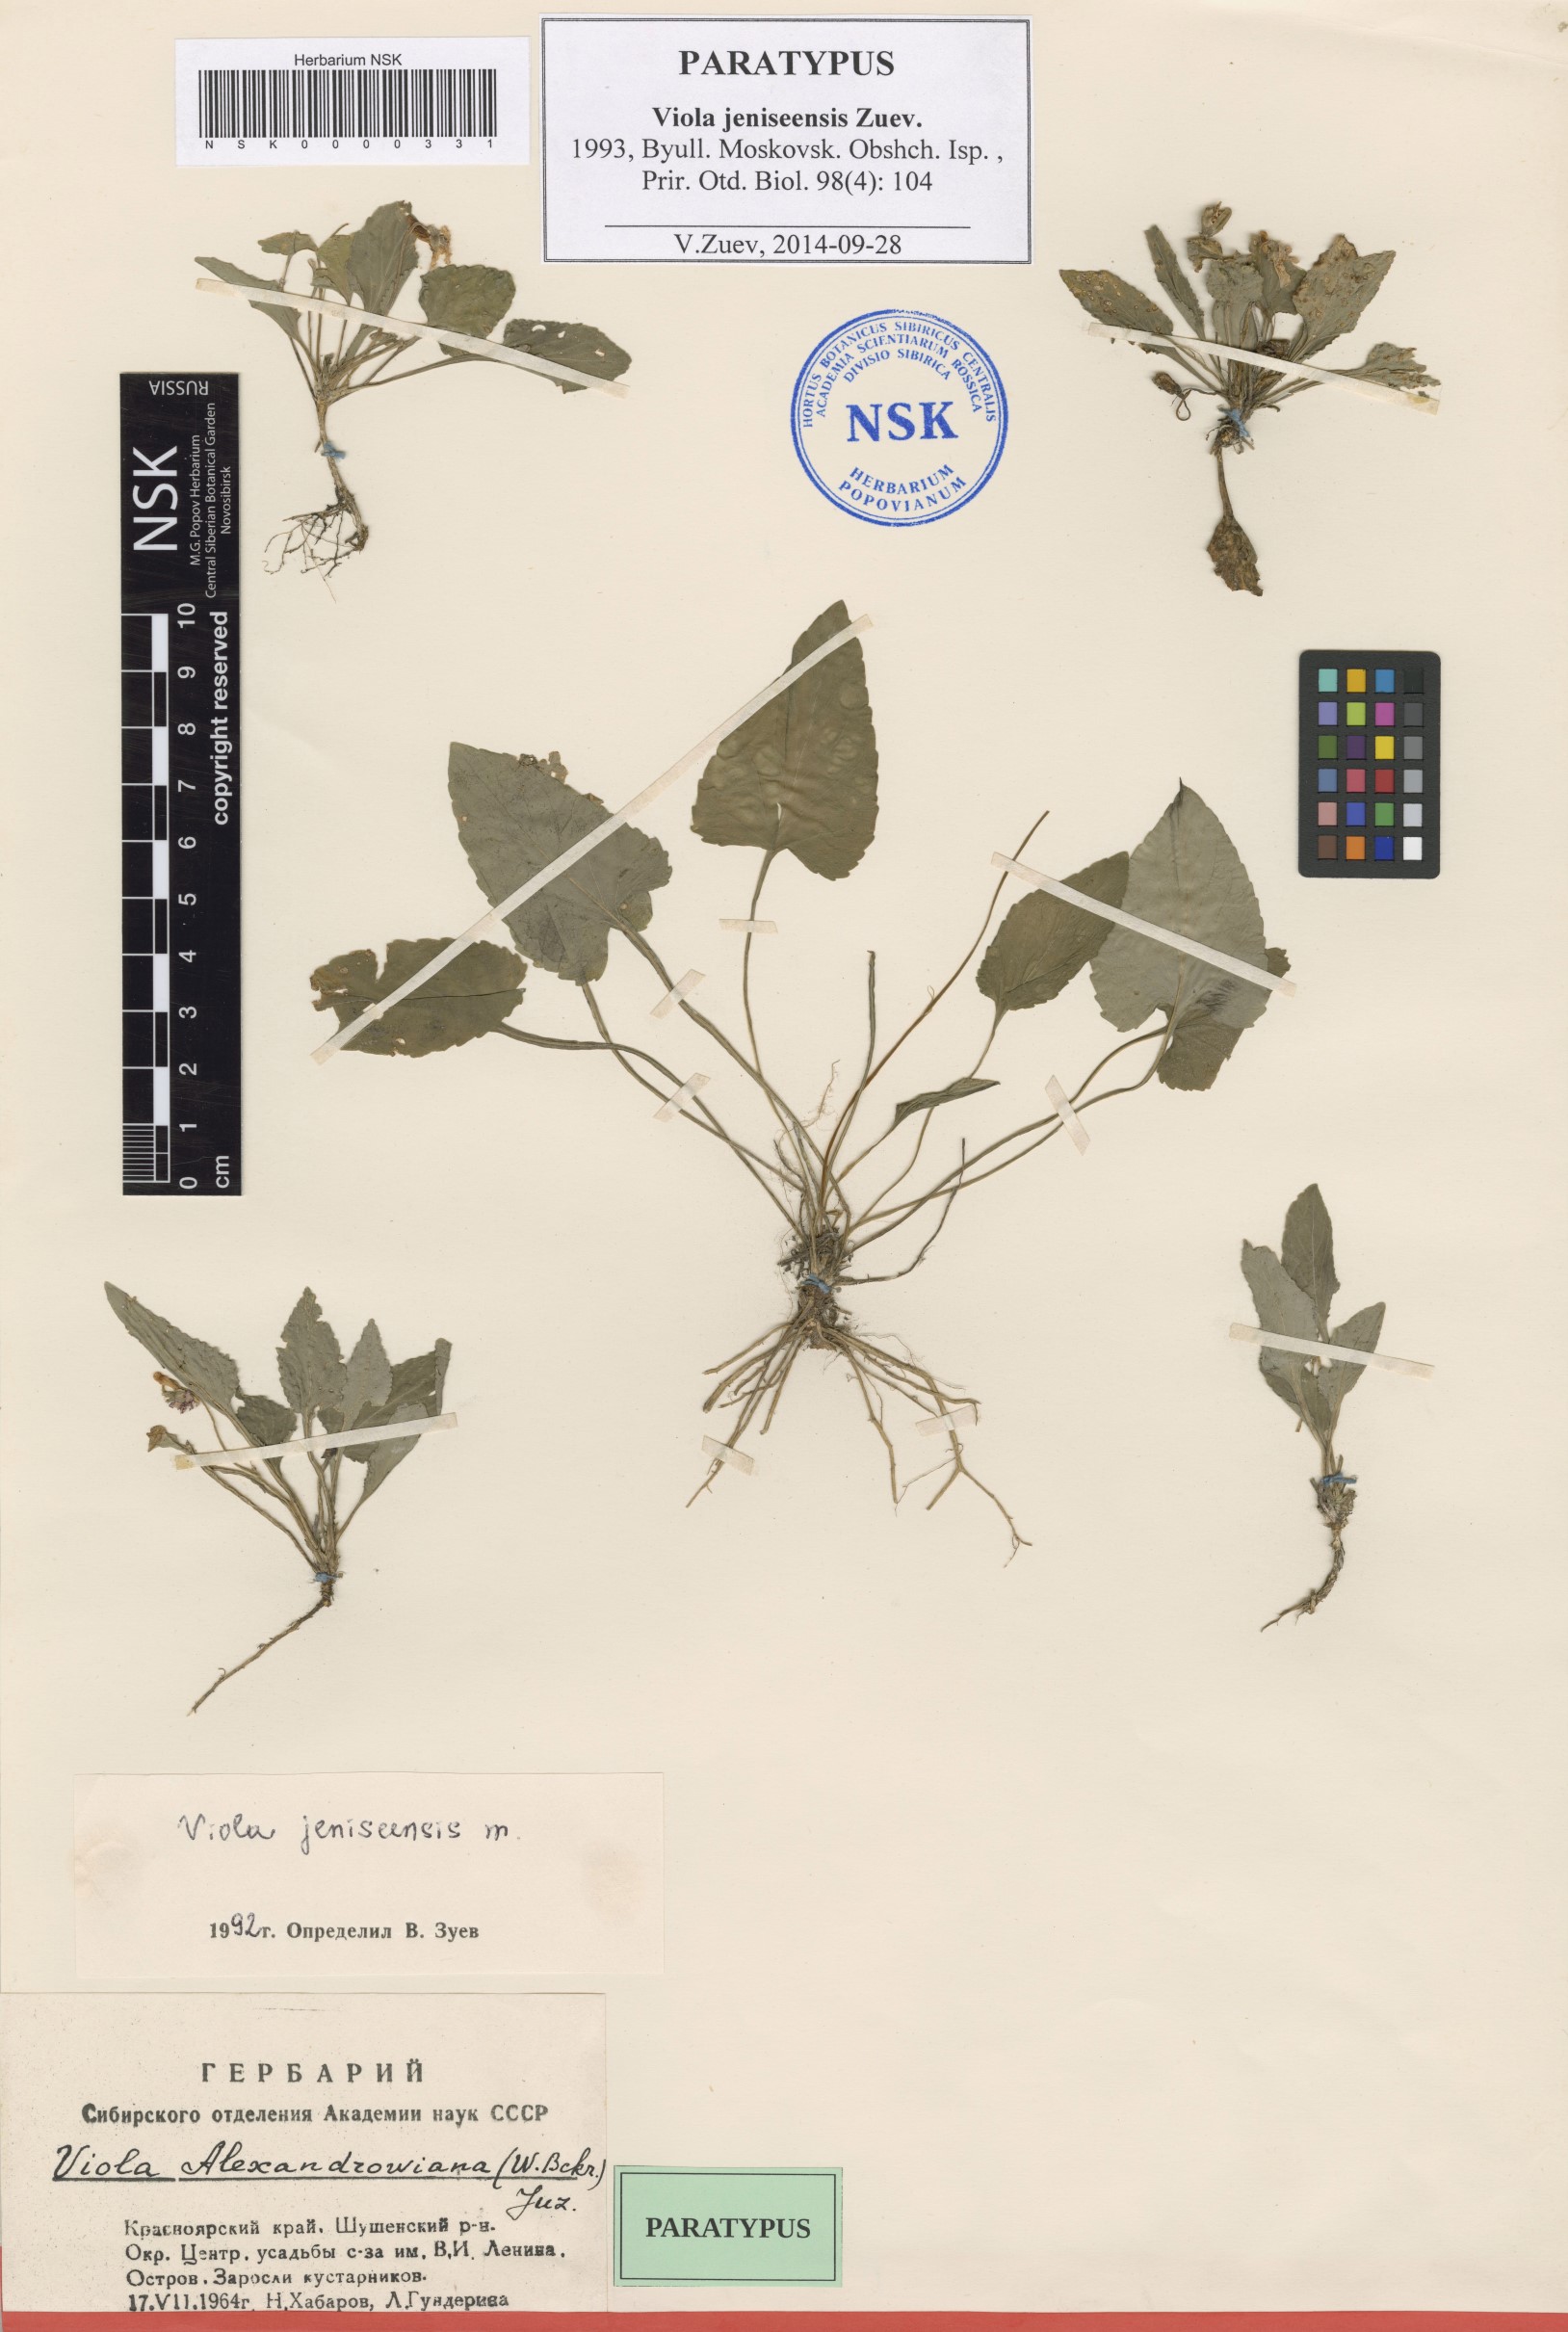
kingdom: Plantae
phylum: Tracheophyta
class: Magnoliopsida
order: Malpighiales
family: Violaceae
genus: Viola
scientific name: Viola prionantha
